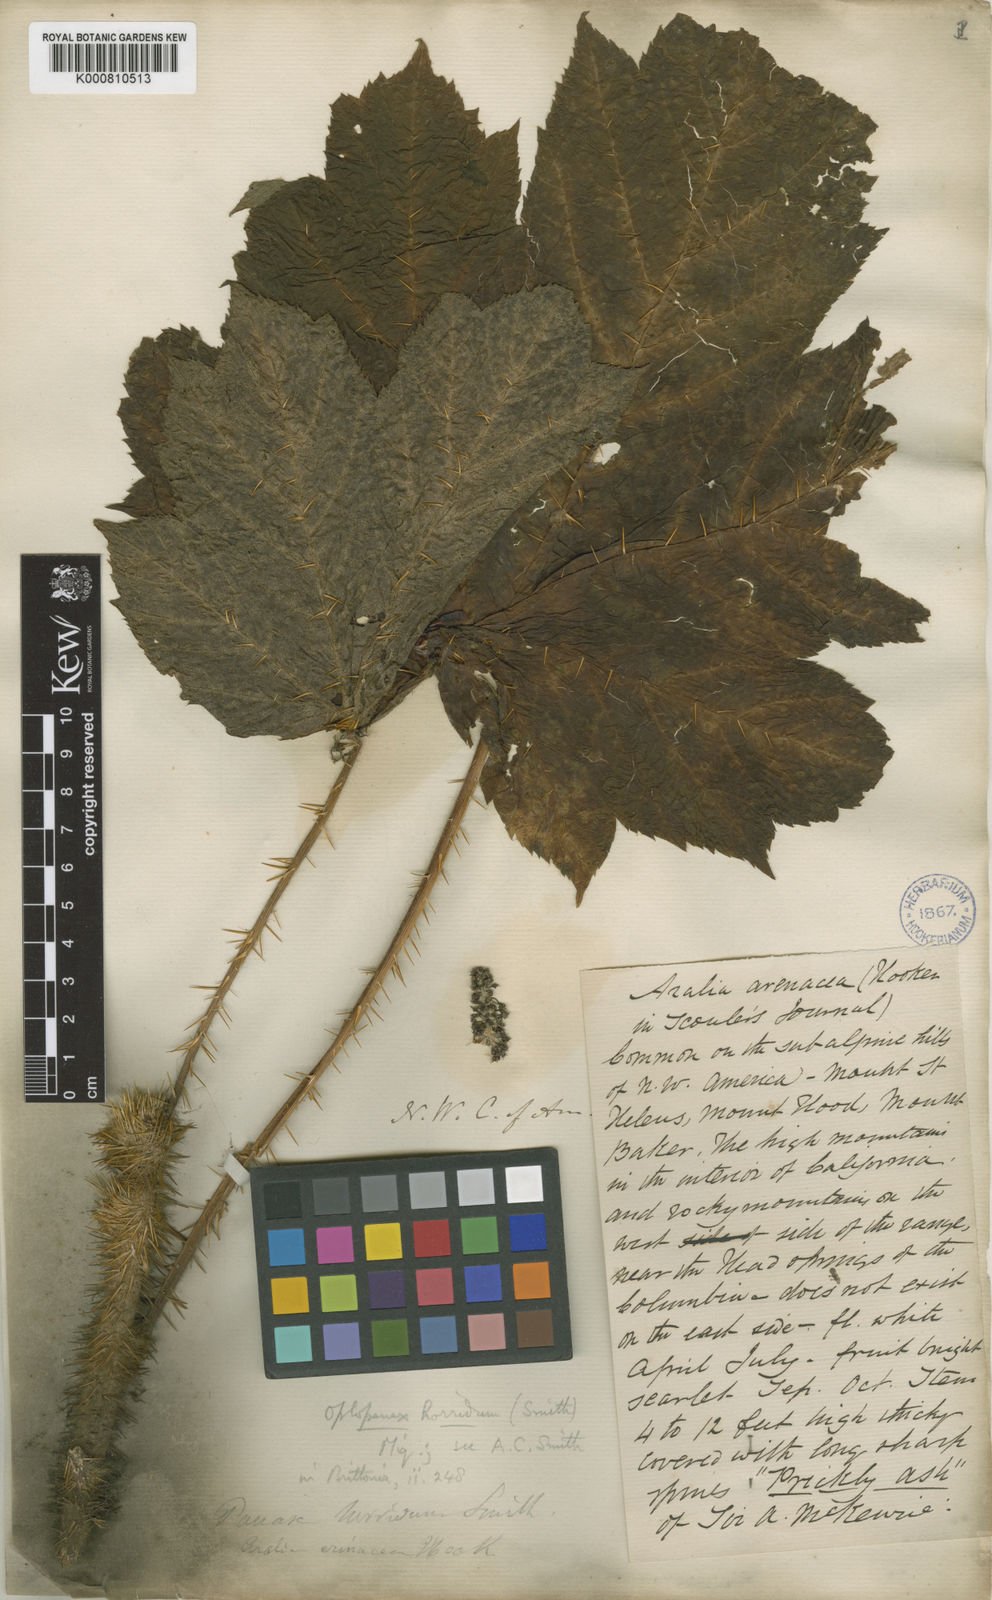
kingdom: Plantae
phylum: Tracheophyta
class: Magnoliopsida
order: Apiales
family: Araliaceae
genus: Oplopanax
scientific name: Oplopanax horridus
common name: Devil's walking-stick
